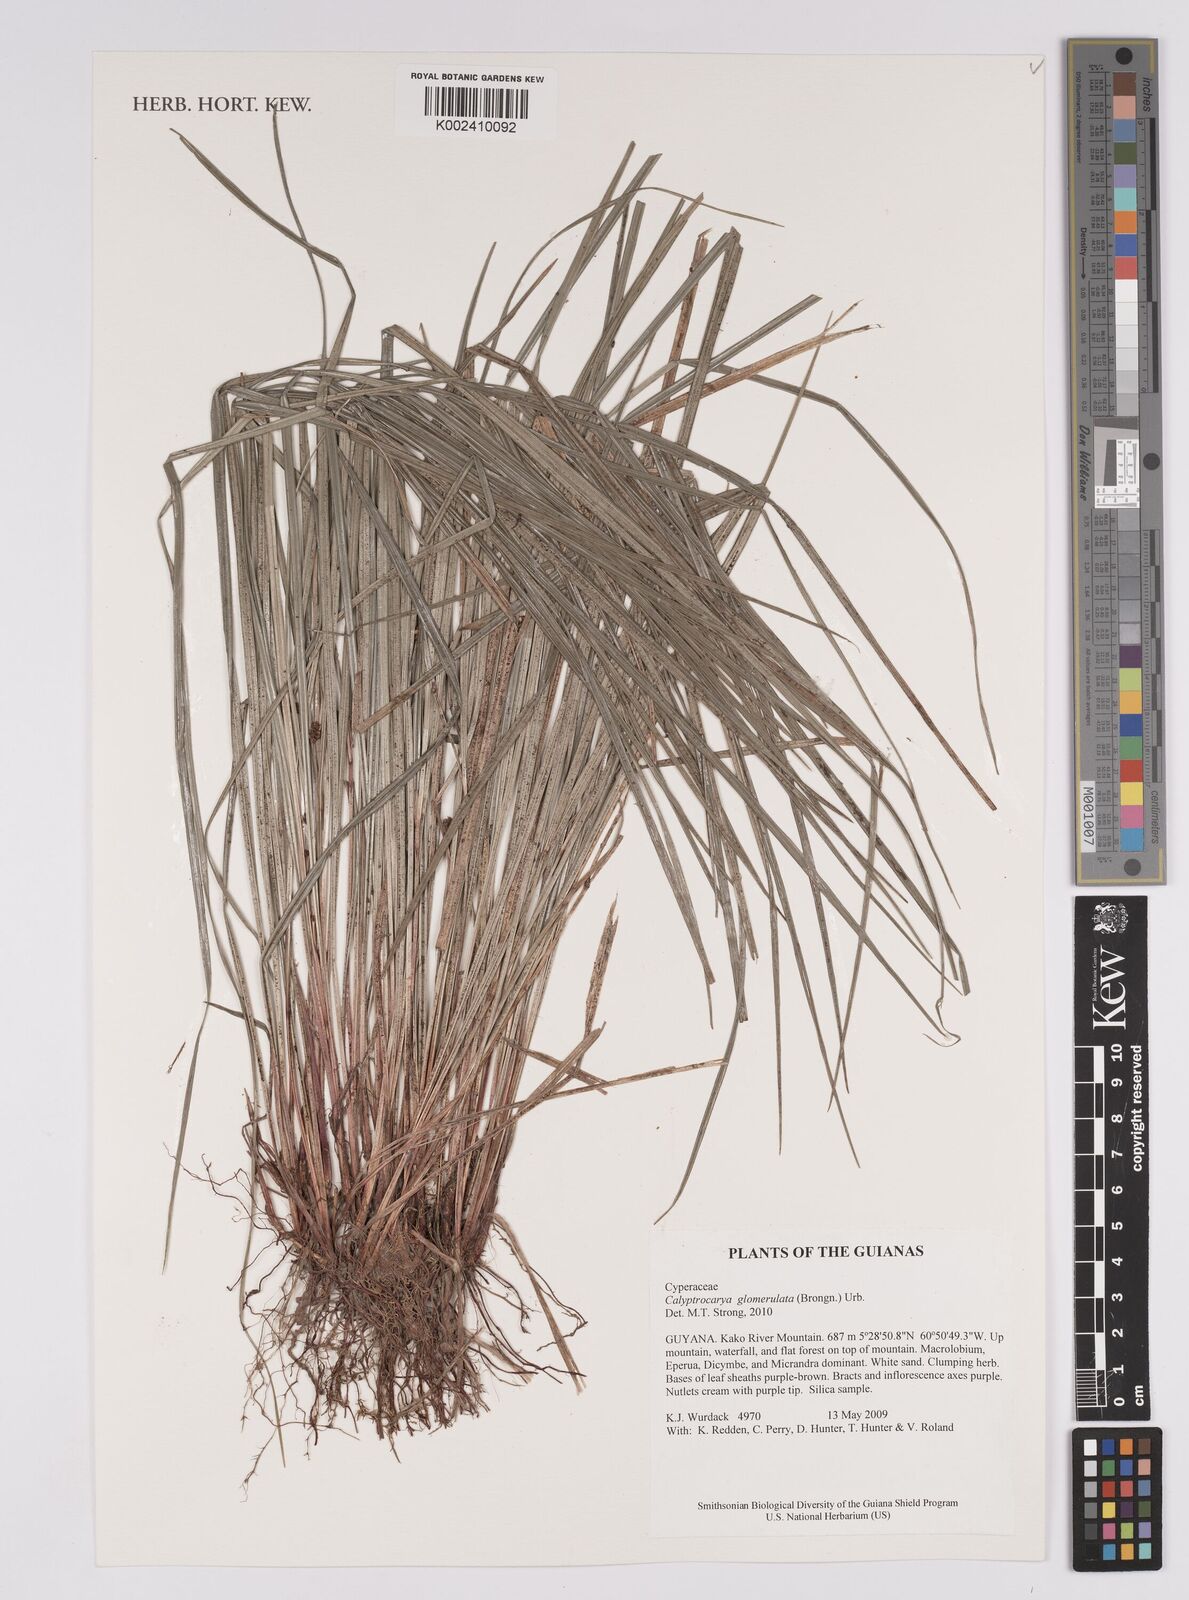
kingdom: Plantae
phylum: Tracheophyta
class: Liliopsida
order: Poales
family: Cyperaceae
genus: Calyptrocarya
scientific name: Calyptrocarya
